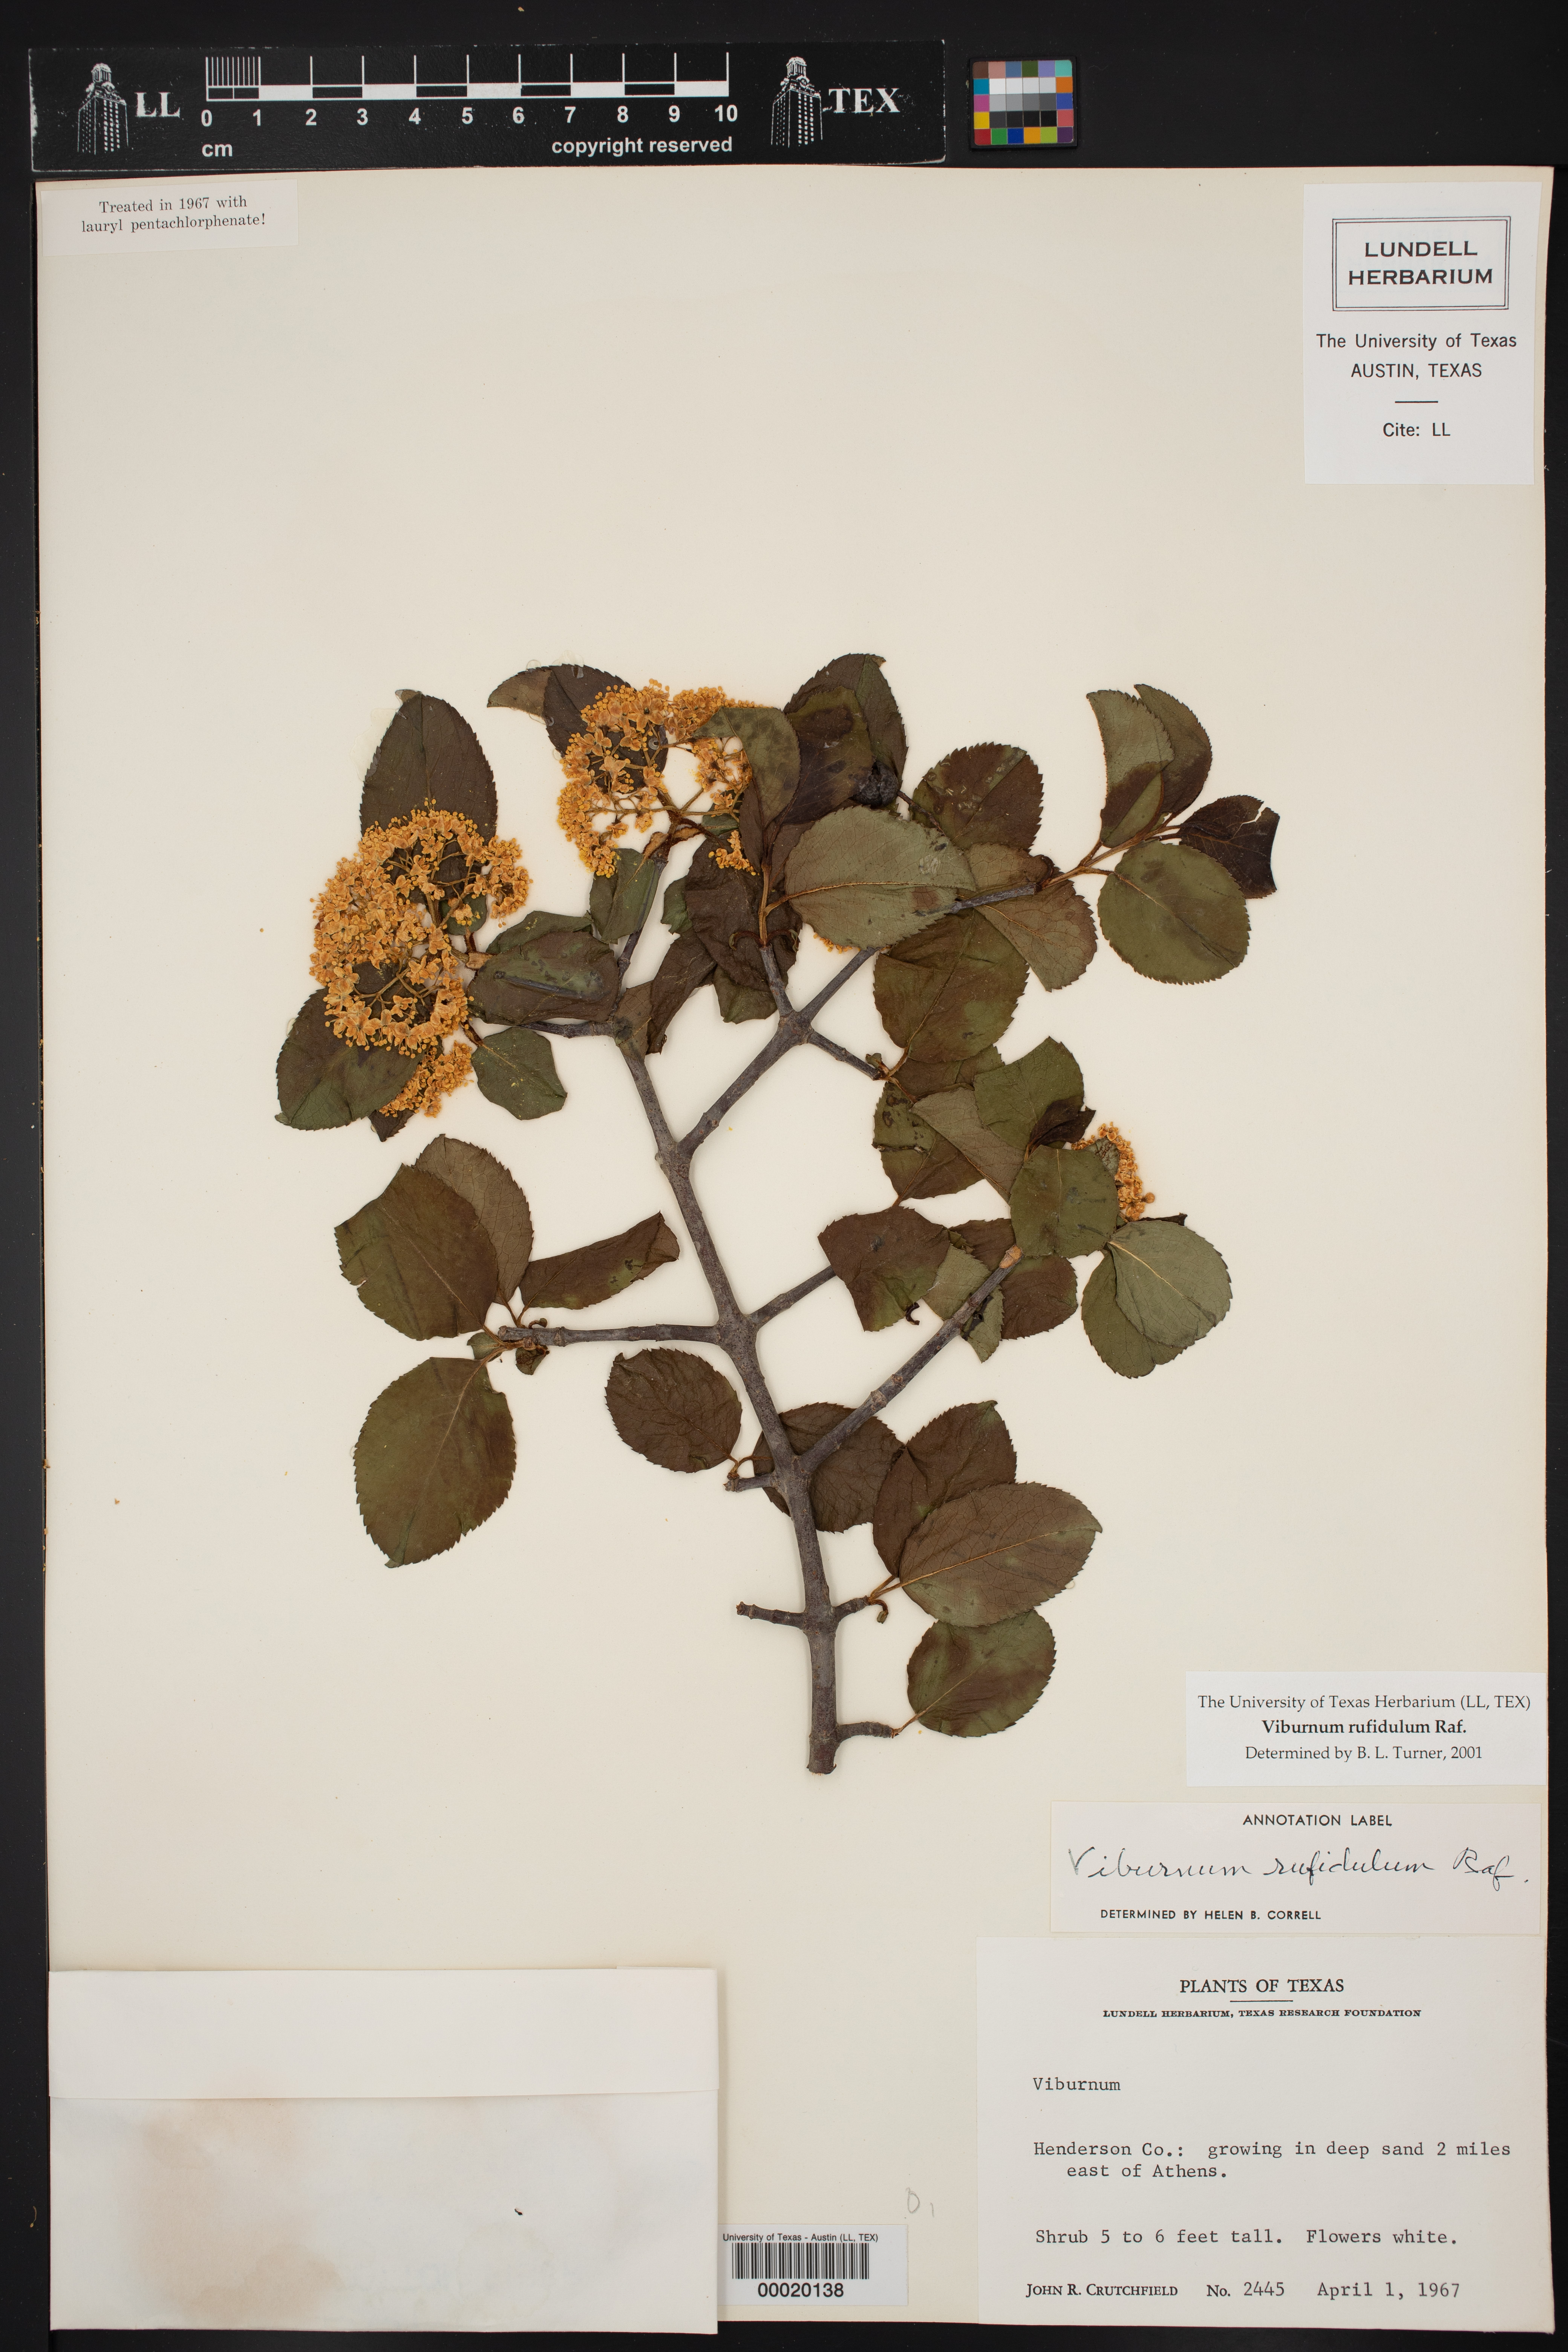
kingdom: Plantae
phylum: Tracheophyta
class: Magnoliopsida
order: Dipsacales
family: Viburnaceae
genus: Viburnum
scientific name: Viburnum rufidulum
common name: Blue haw
